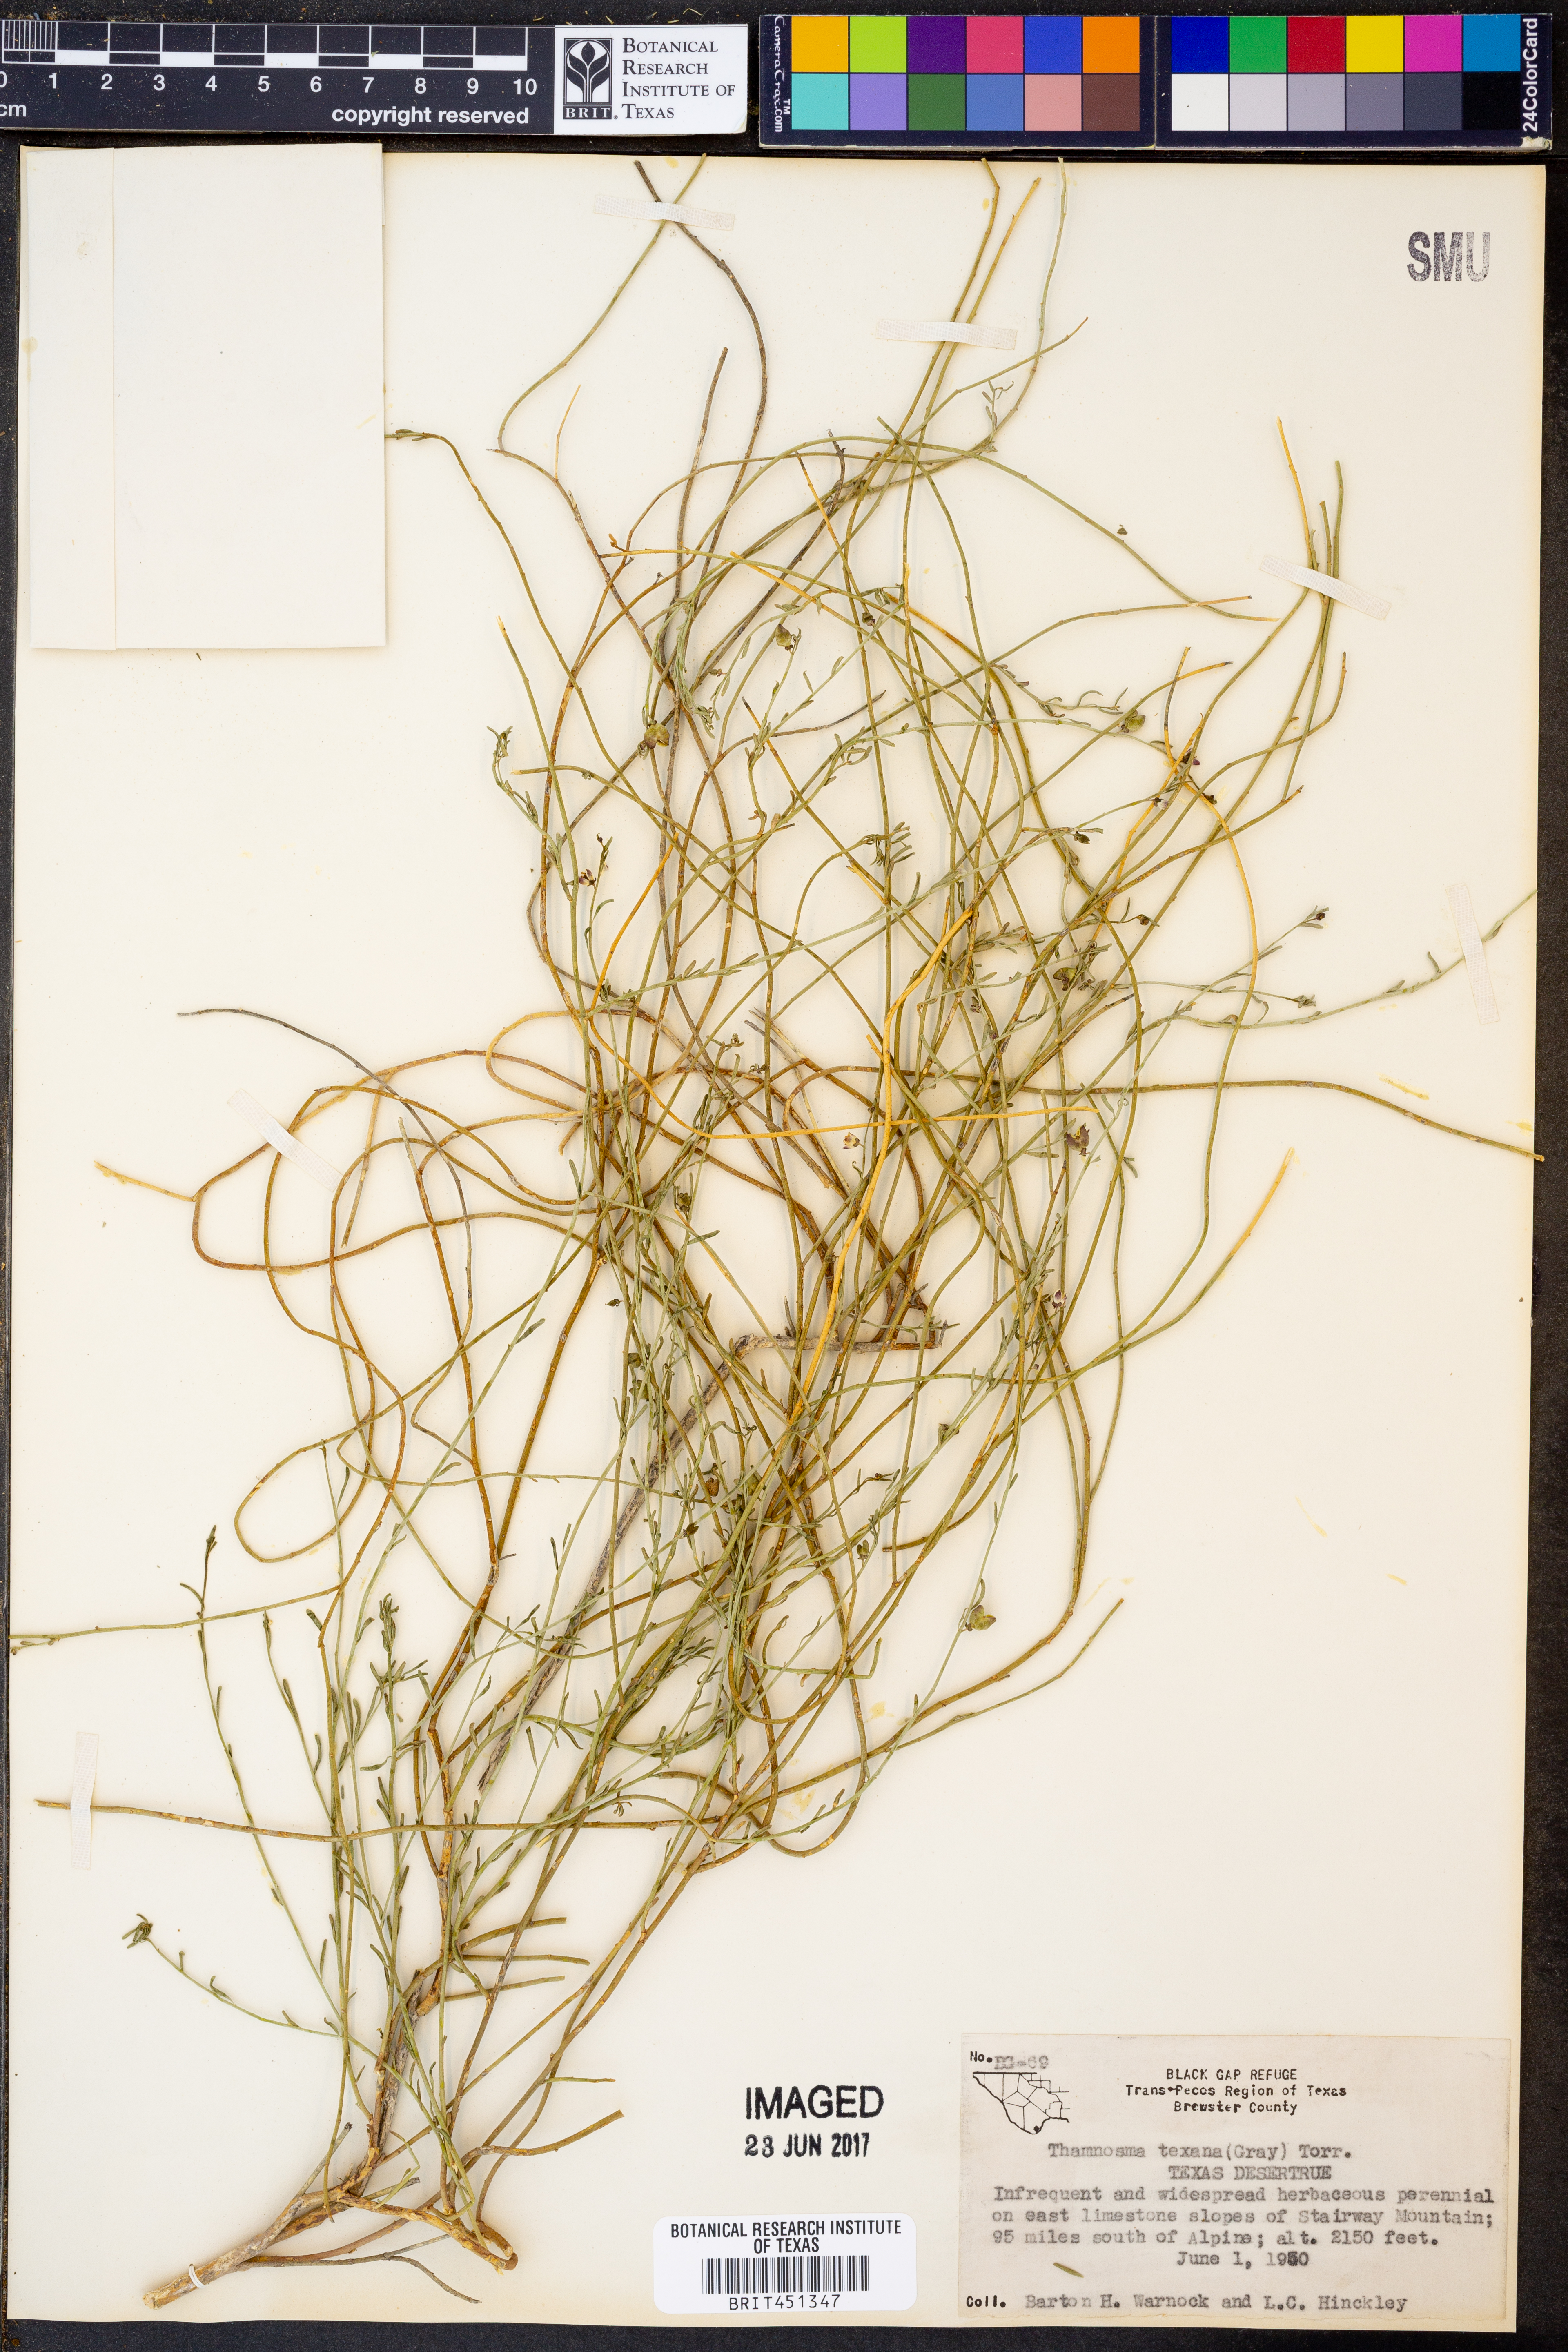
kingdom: Plantae
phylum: Tracheophyta
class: Magnoliopsida
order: Sapindales
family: Rutaceae
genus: Thamnosma
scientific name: Thamnosma texana
